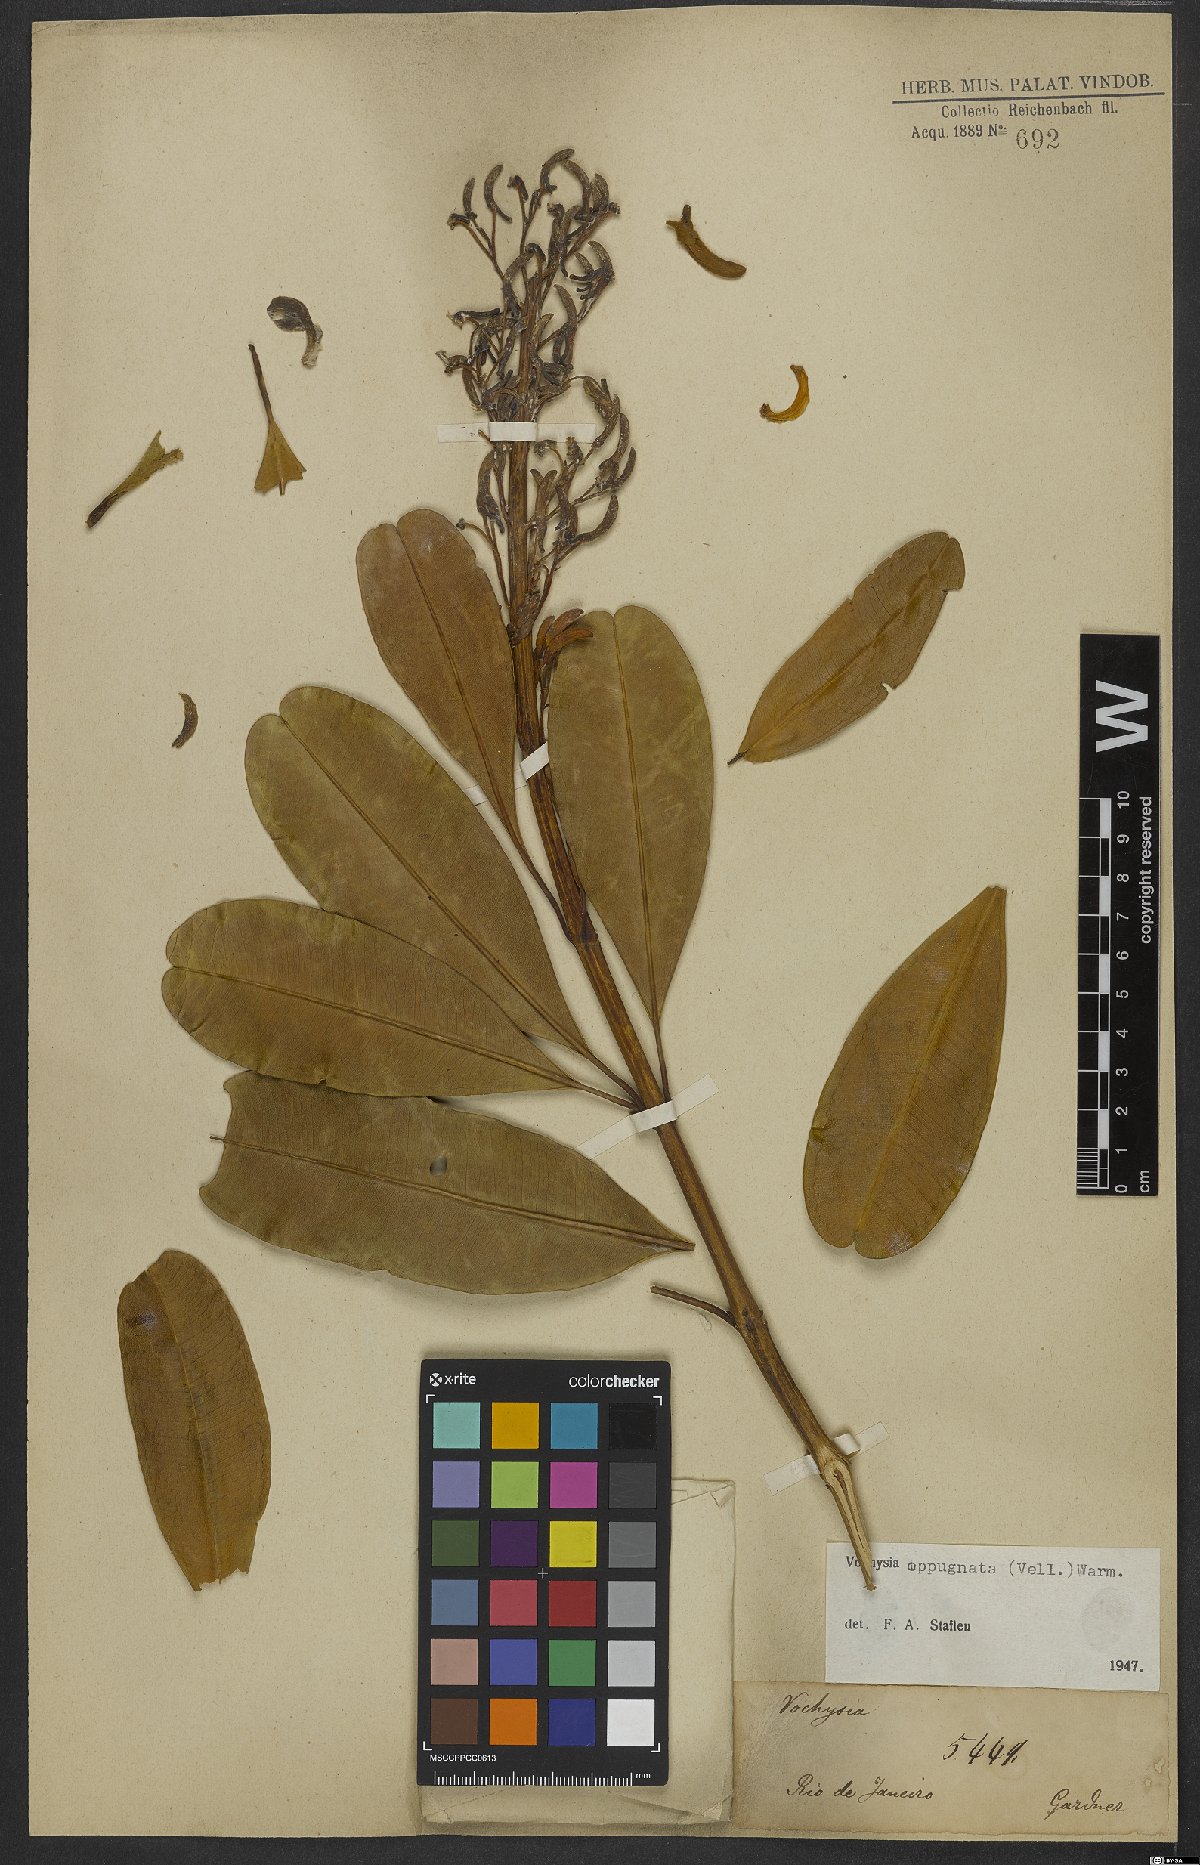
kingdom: Plantae
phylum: Tracheophyta
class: Magnoliopsida
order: Myrtales
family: Vochysiaceae
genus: Vochysia
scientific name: Vochysia oppugnata
